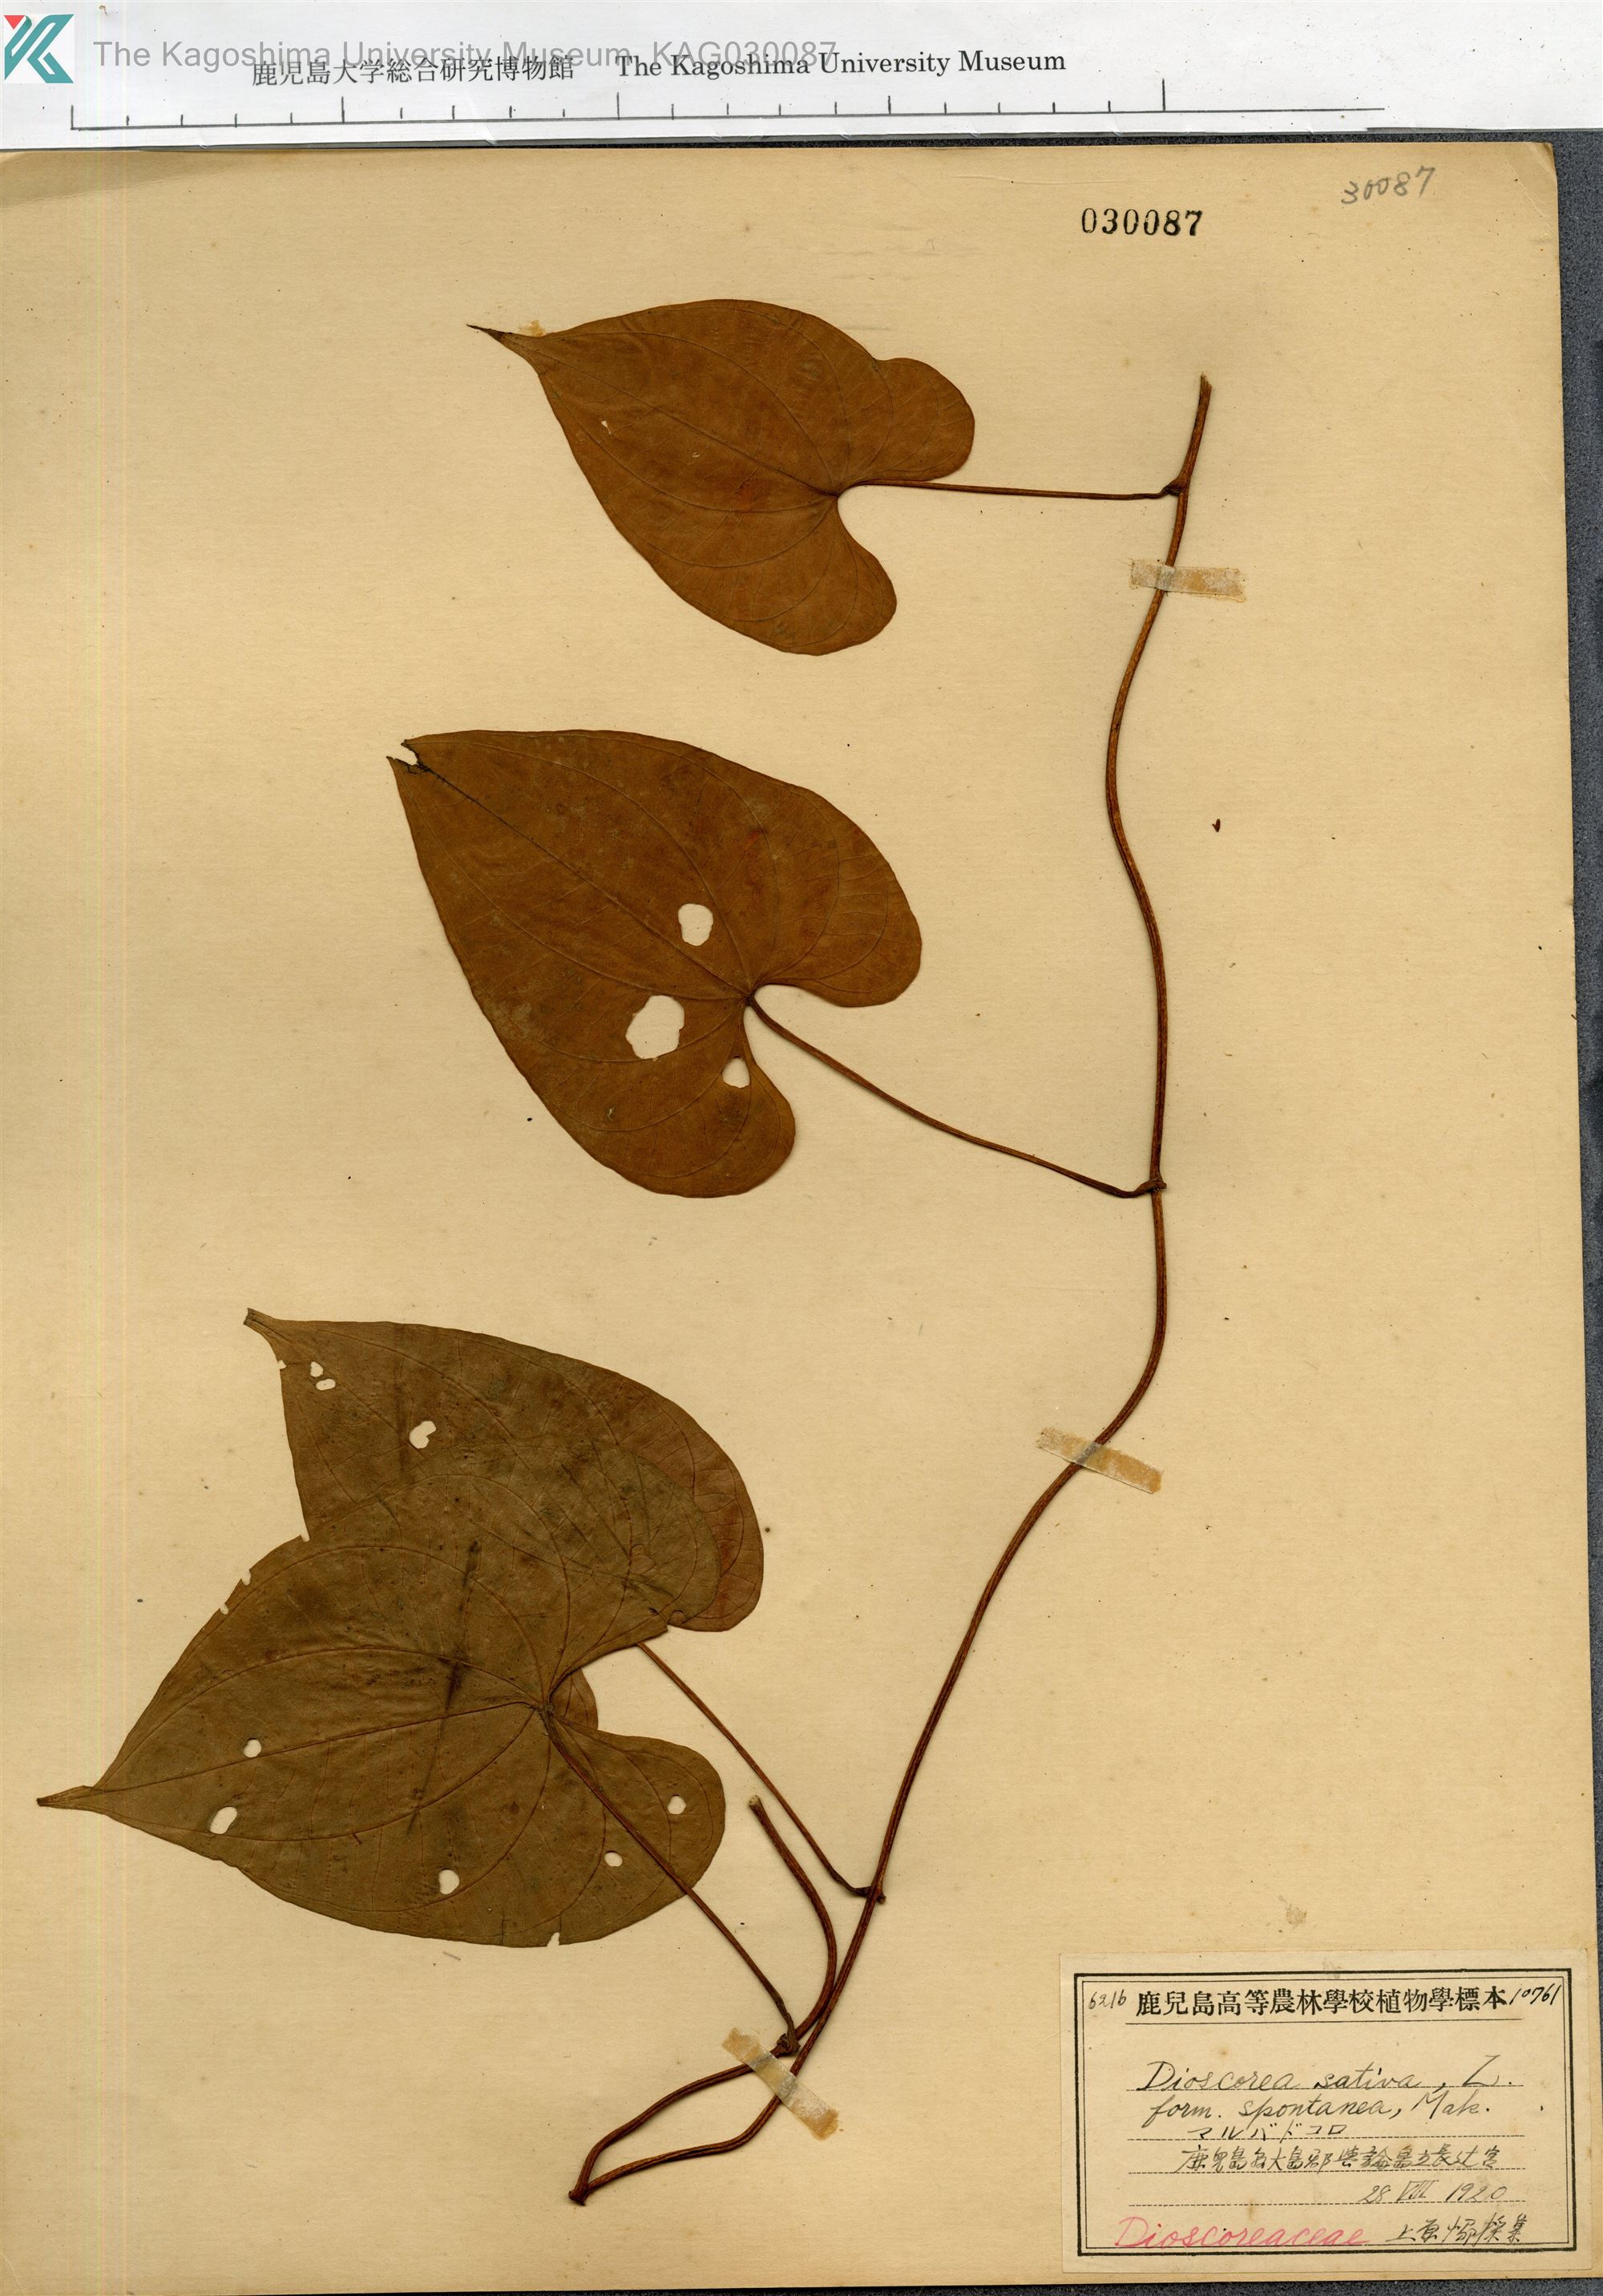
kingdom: Plantae
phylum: Tracheophyta
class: Liliopsida
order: Dioscoreales
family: Dioscoreaceae
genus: Dioscorea
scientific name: Dioscorea bulbifera
